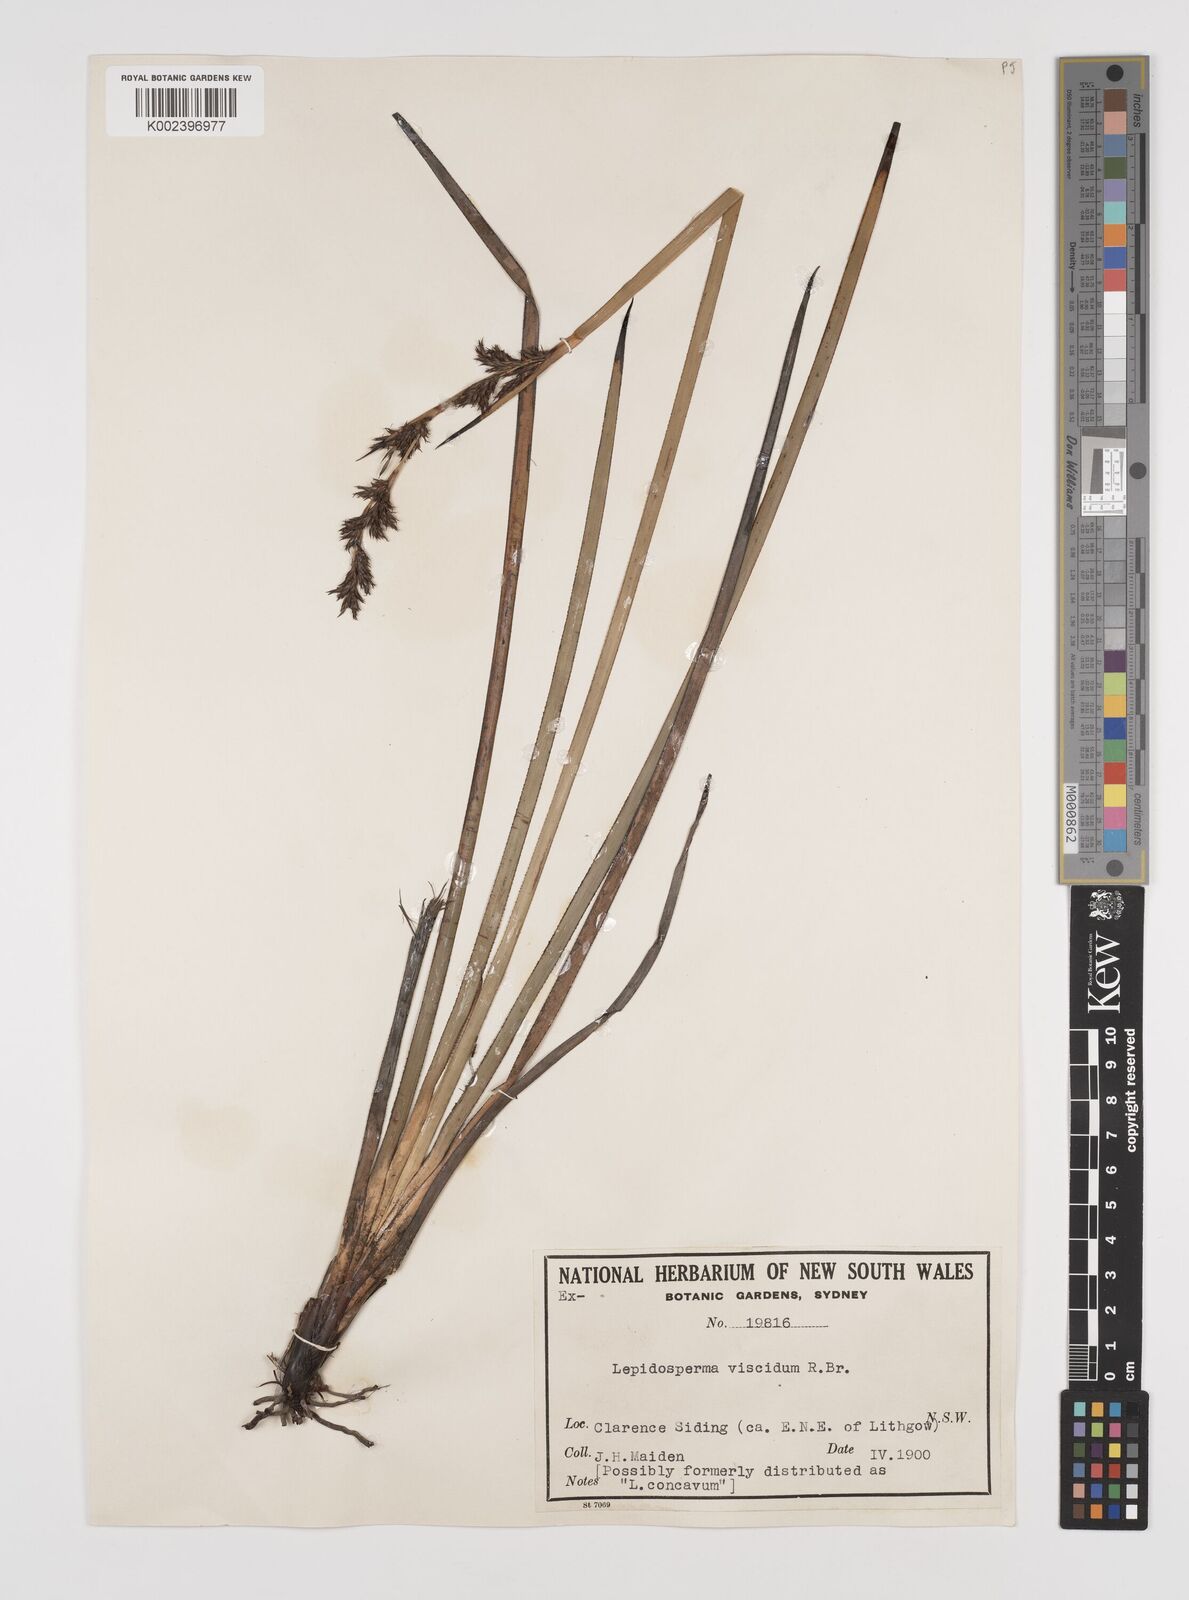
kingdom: Plantae
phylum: Tracheophyta
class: Liliopsida
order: Poales
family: Cyperaceae
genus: Lepidosperma
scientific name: Lepidosperma viscidum
